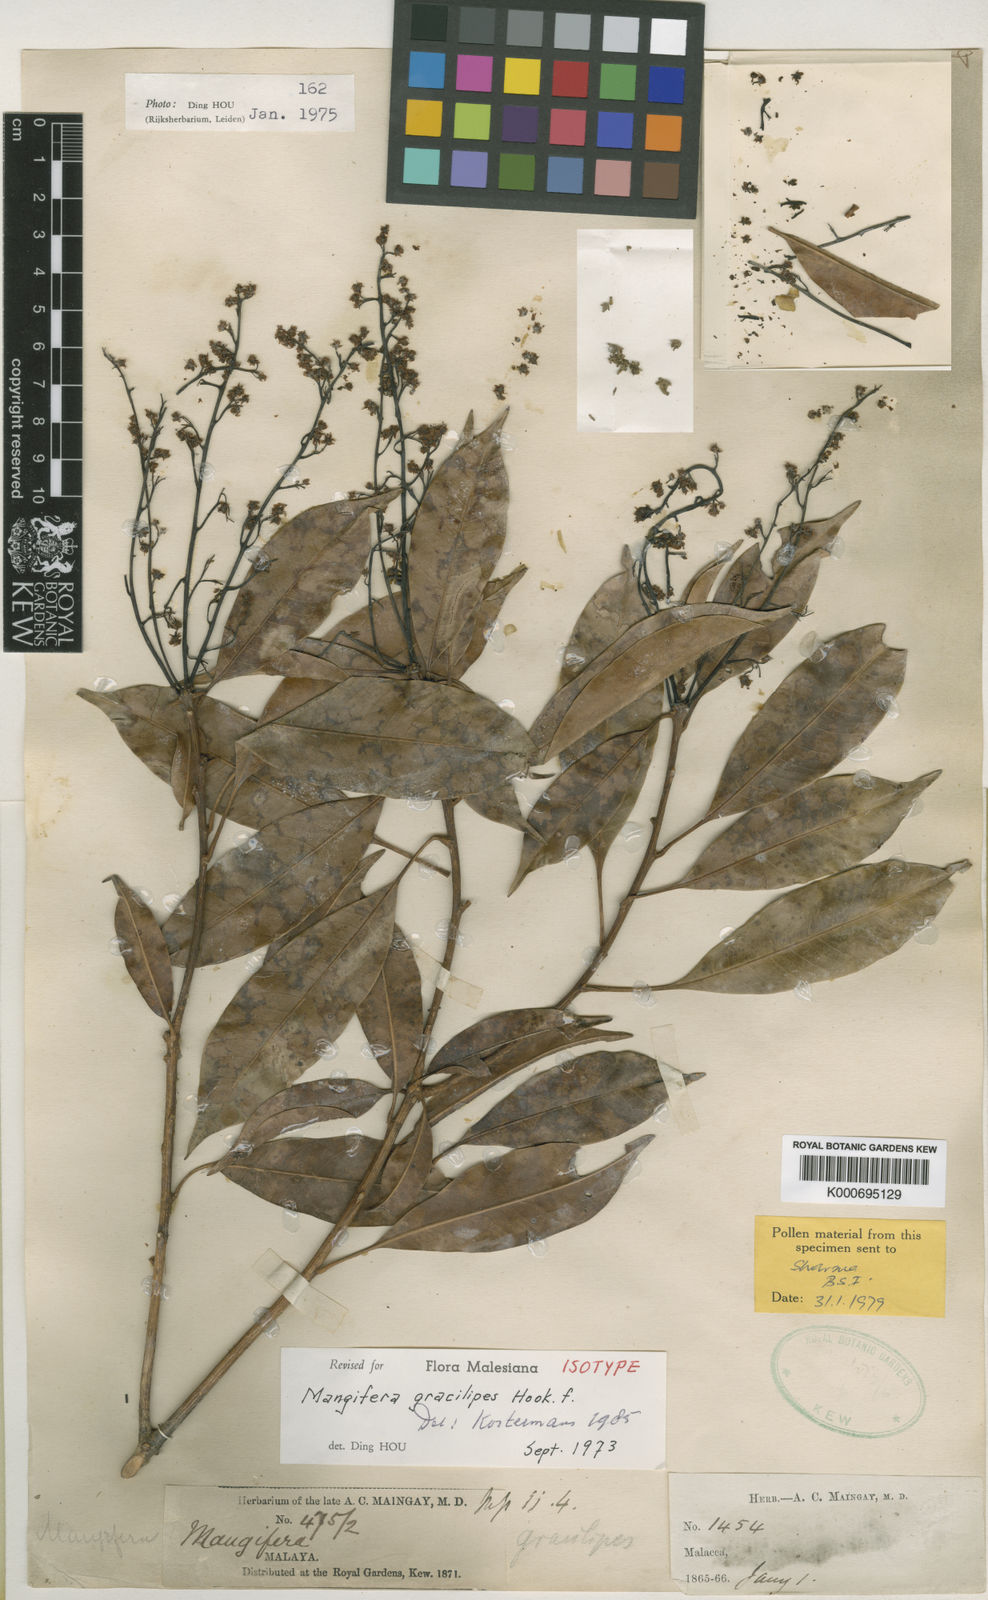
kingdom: Plantae
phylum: Tracheophyta
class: Magnoliopsida
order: Sapindales
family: Anacardiaceae
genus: Mangifera
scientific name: Mangifera gracilipes
